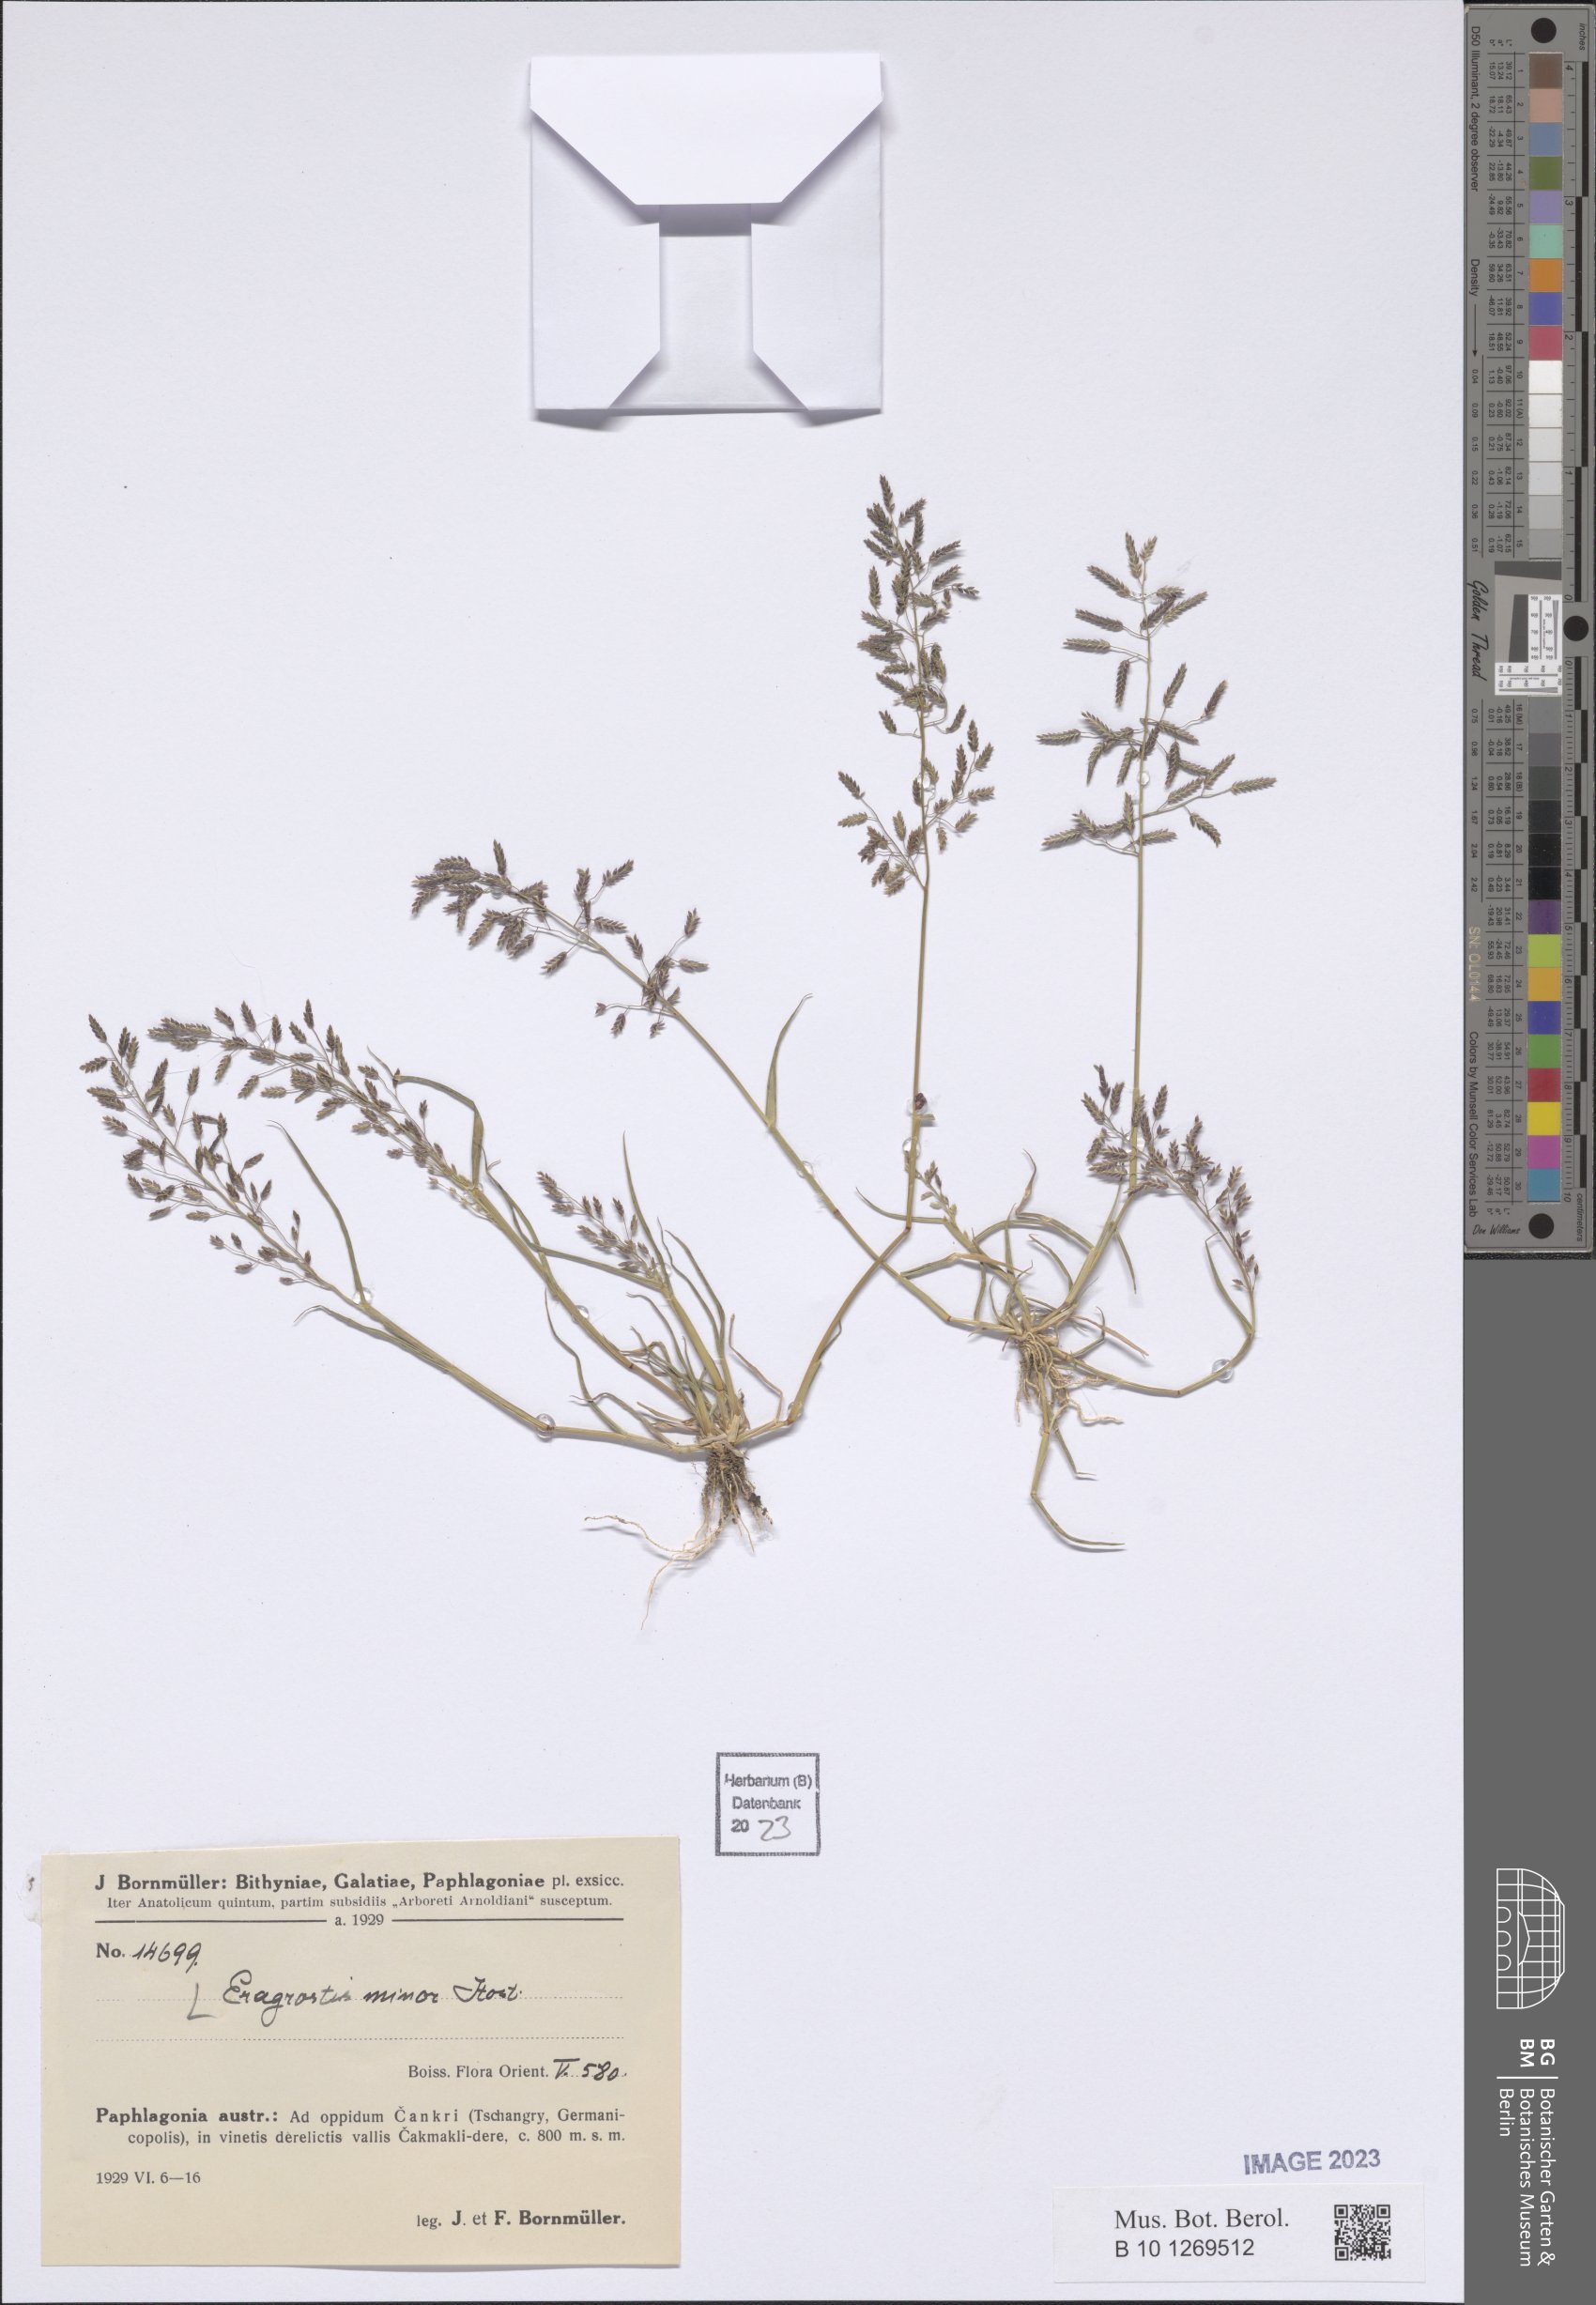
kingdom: Plantae
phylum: Tracheophyta
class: Liliopsida
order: Poales
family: Poaceae
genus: Eragrostis
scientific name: Eragrostis minor
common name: Small love-grass
